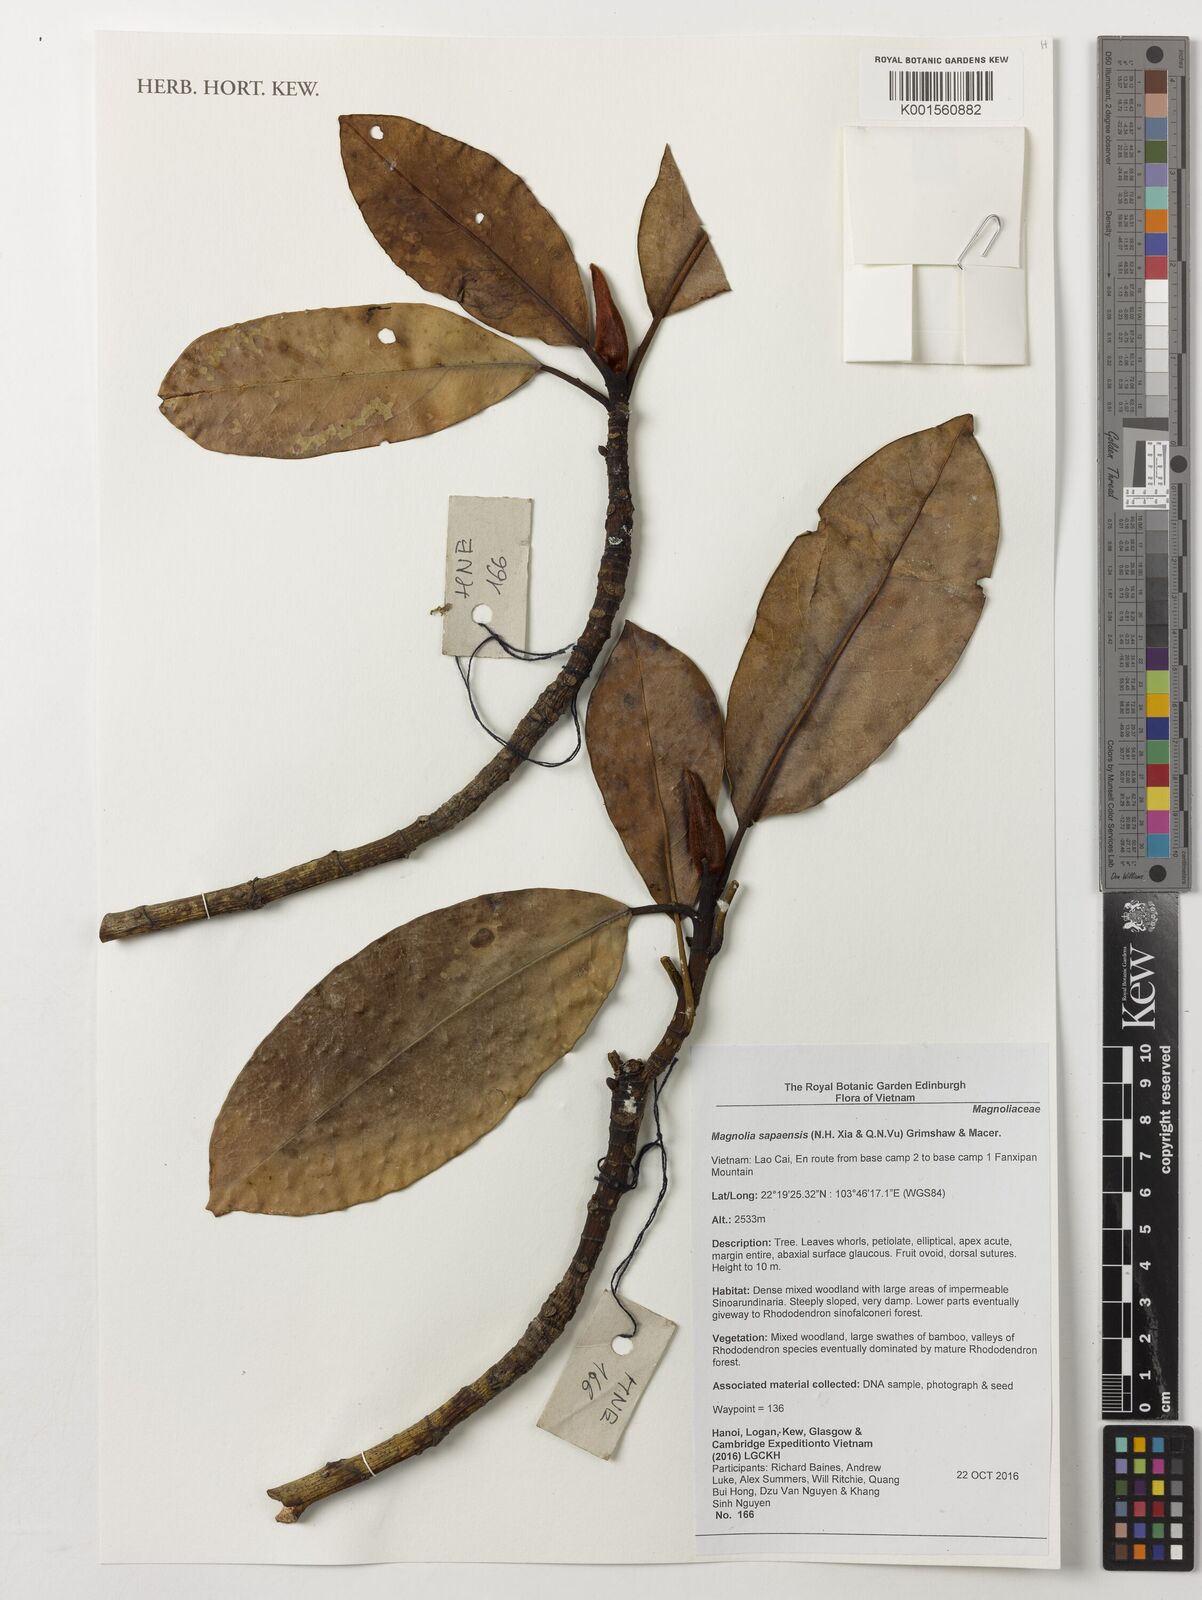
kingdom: Plantae
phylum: Tracheophyta
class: Magnoliopsida
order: Magnoliales
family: Magnoliaceae
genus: Magnolia
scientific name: Magnolia sapaensis
